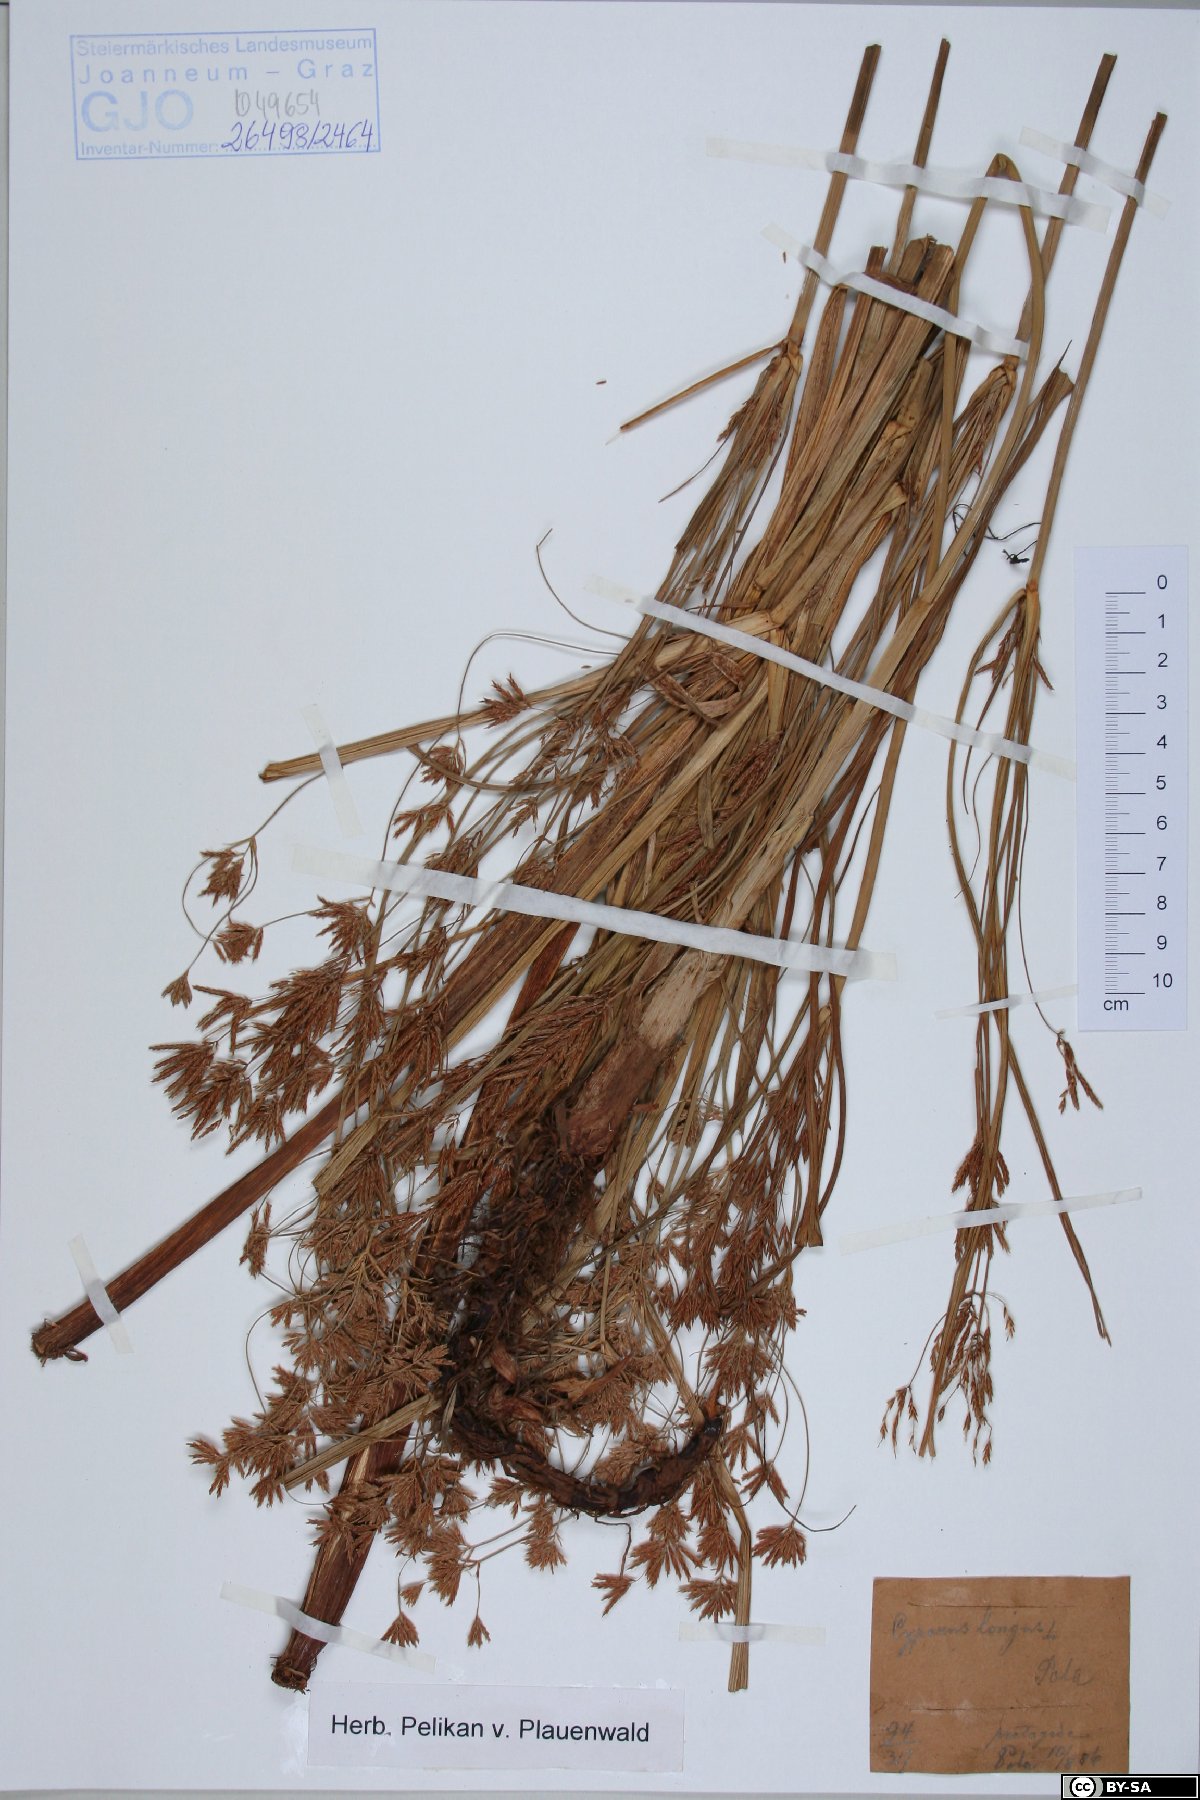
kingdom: Plantae
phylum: Tracheophyta
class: Liliopsida
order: Poales
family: Cyperaceae
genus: Cyperus
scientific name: Cyperus longus
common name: Galingale
